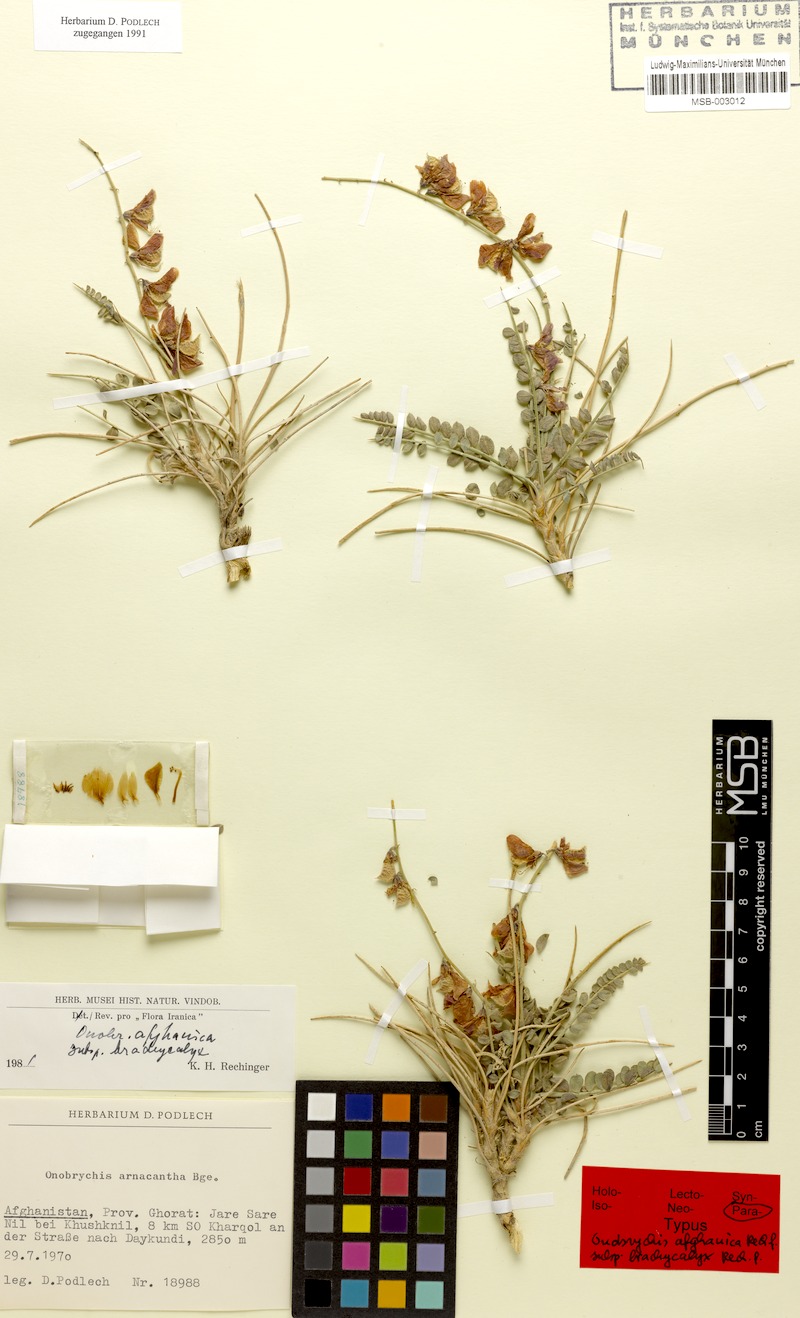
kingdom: Plantae
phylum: Tracheophyta
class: Magnoliopsida
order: Fabales
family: Fabaceae
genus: Onobrychis
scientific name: Onobrychis afghanica
